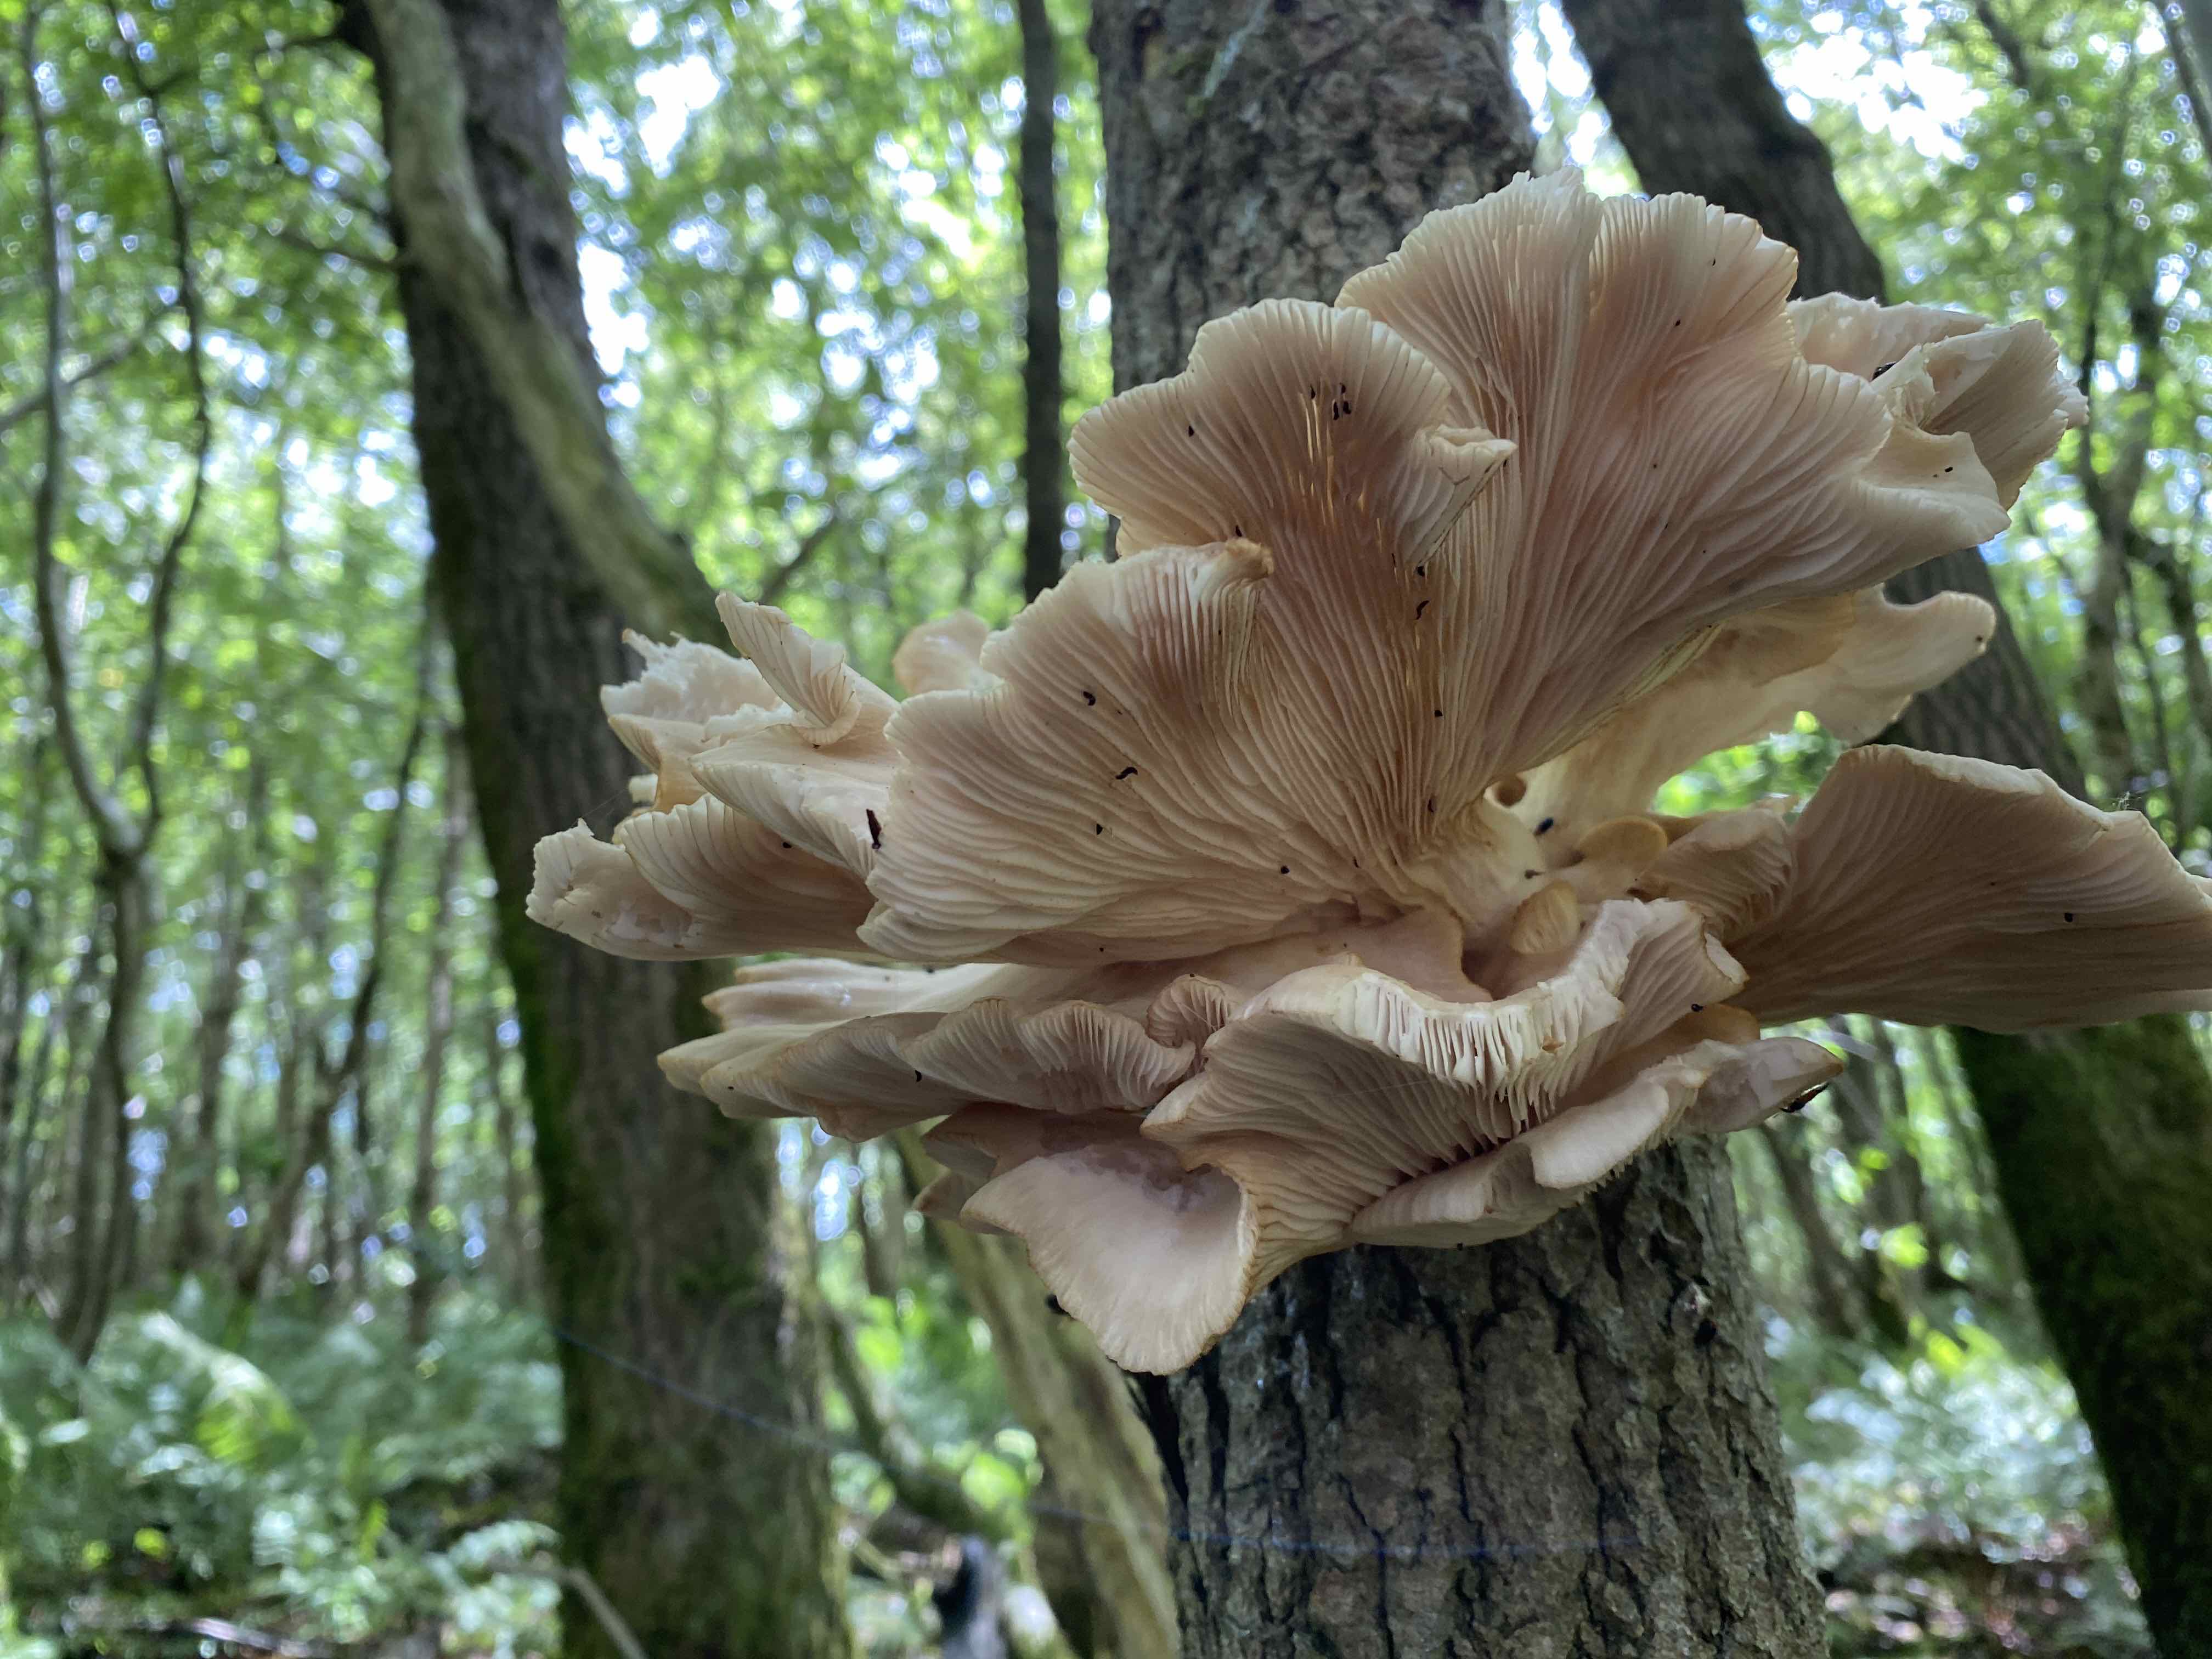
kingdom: Fungi
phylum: Basidiomycota
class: Agaricomycetes
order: Agaricales
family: Pleurotaceae
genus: Pleurotus
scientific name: Pleurotus pulmonarius
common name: sommer-østershat
